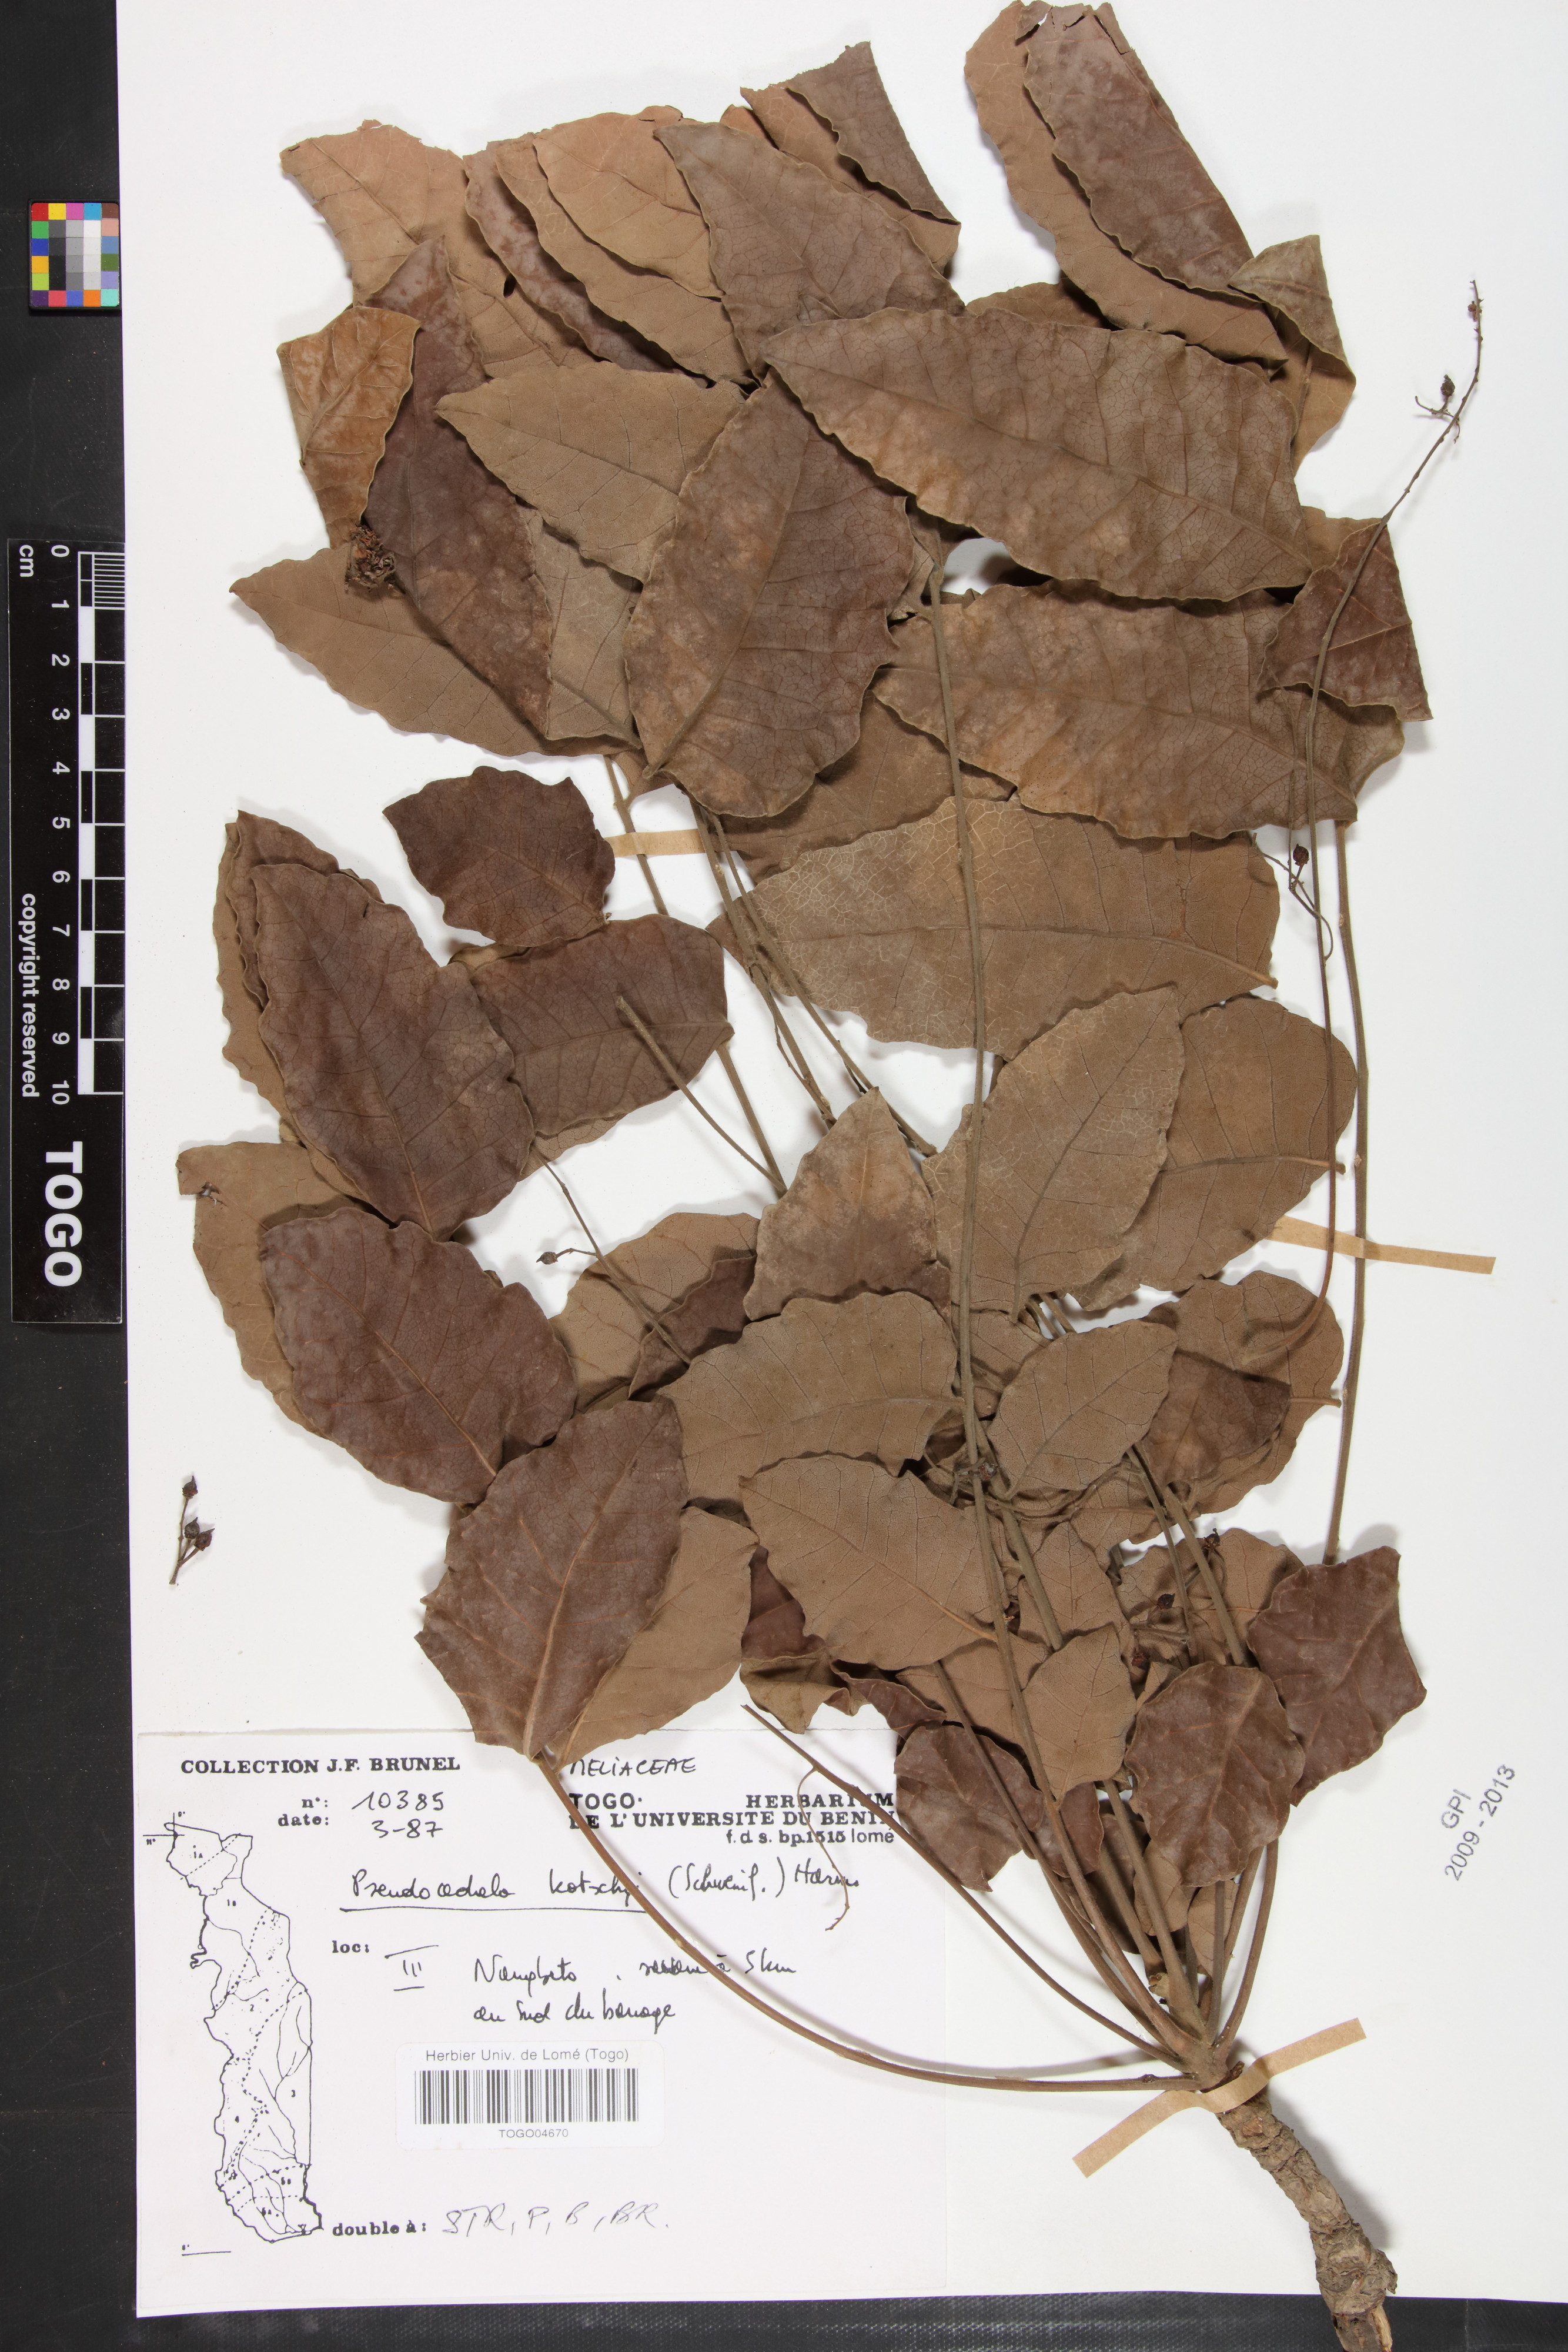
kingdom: Plantae
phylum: Tracheophyta
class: Magnoliopsida
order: Sapindales
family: Meliaceae
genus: Pseudocedrela
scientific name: Pseudocedrela kotschyi
